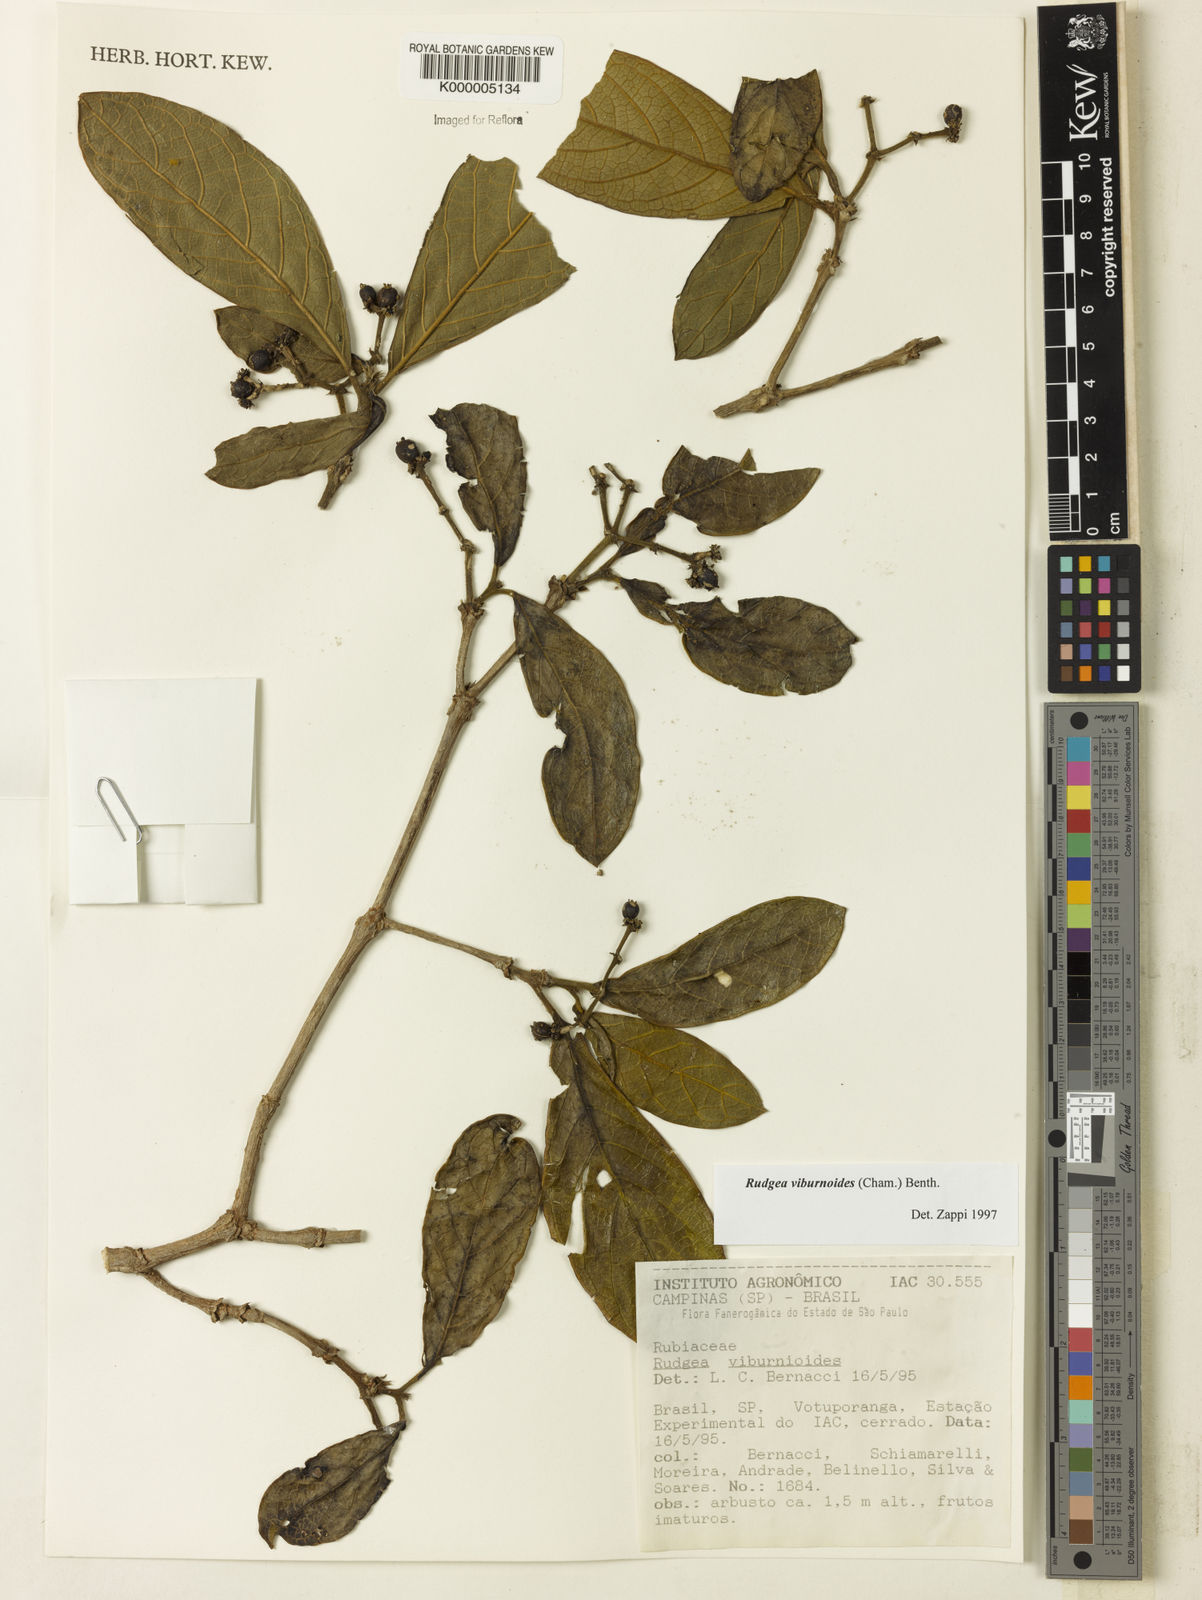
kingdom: Plantae
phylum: Tracheophyta
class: Magnoliopsida
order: Gentianales
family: Rubiaceae
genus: Rudgea
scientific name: Rudgea viburnoides
